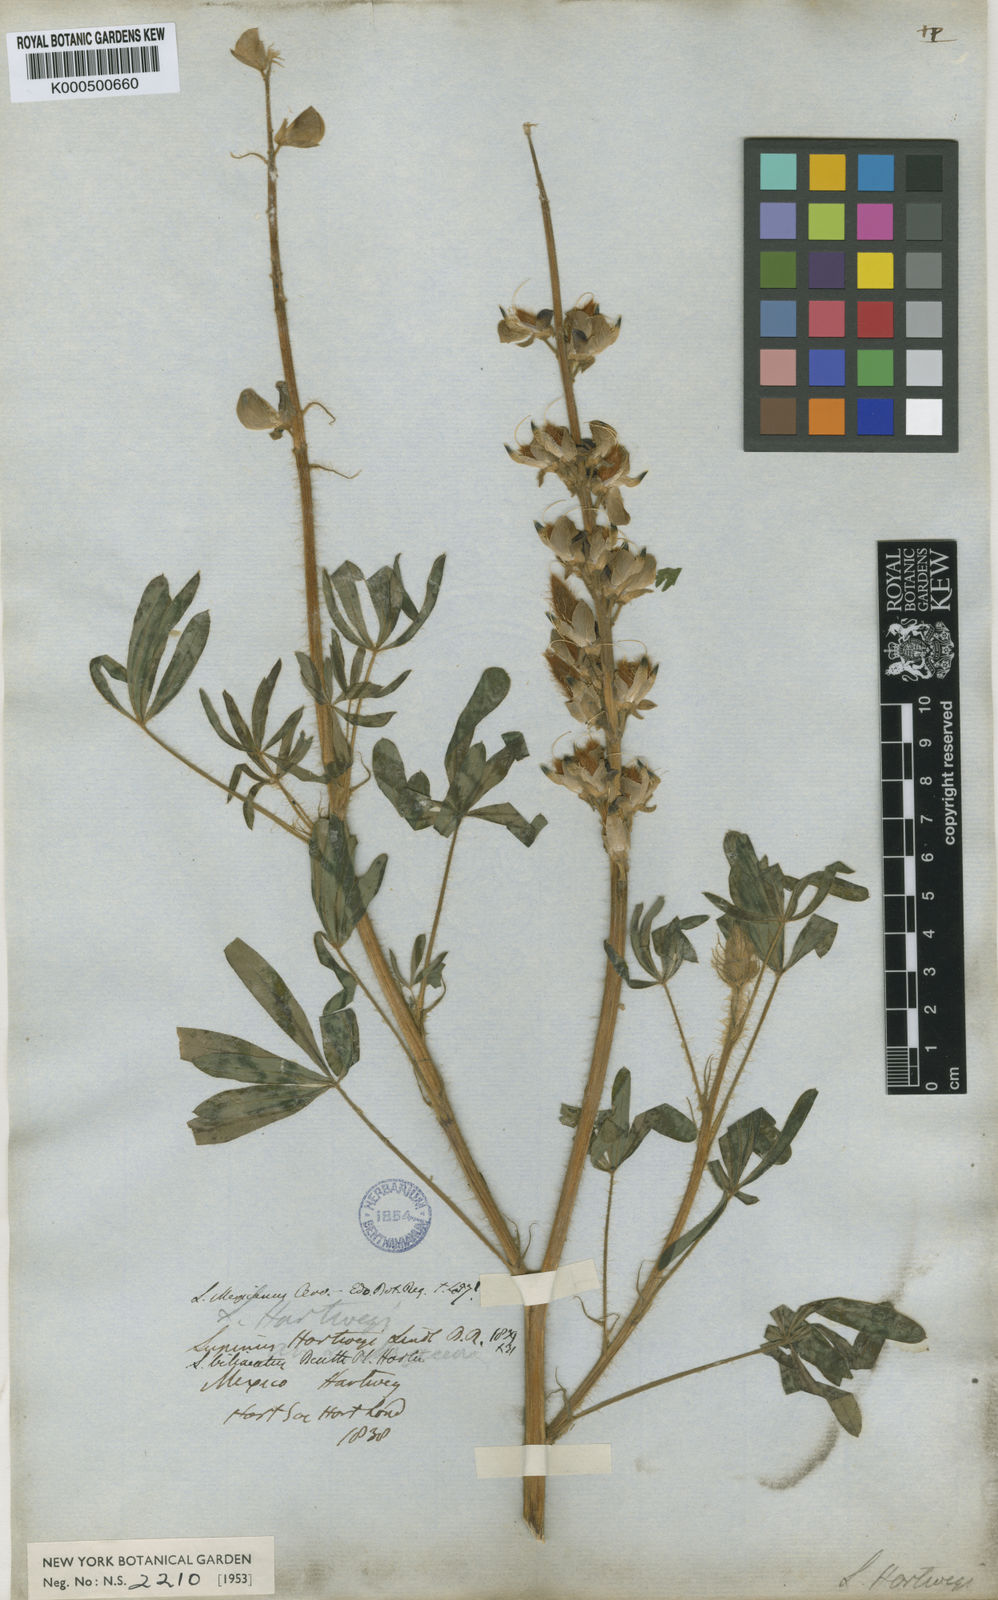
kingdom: Plantae
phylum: Tracheophyta
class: Magnoliopsida
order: Fabales
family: Fabaceae
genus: Lupinus
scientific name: Lupinus ehrenbergii
